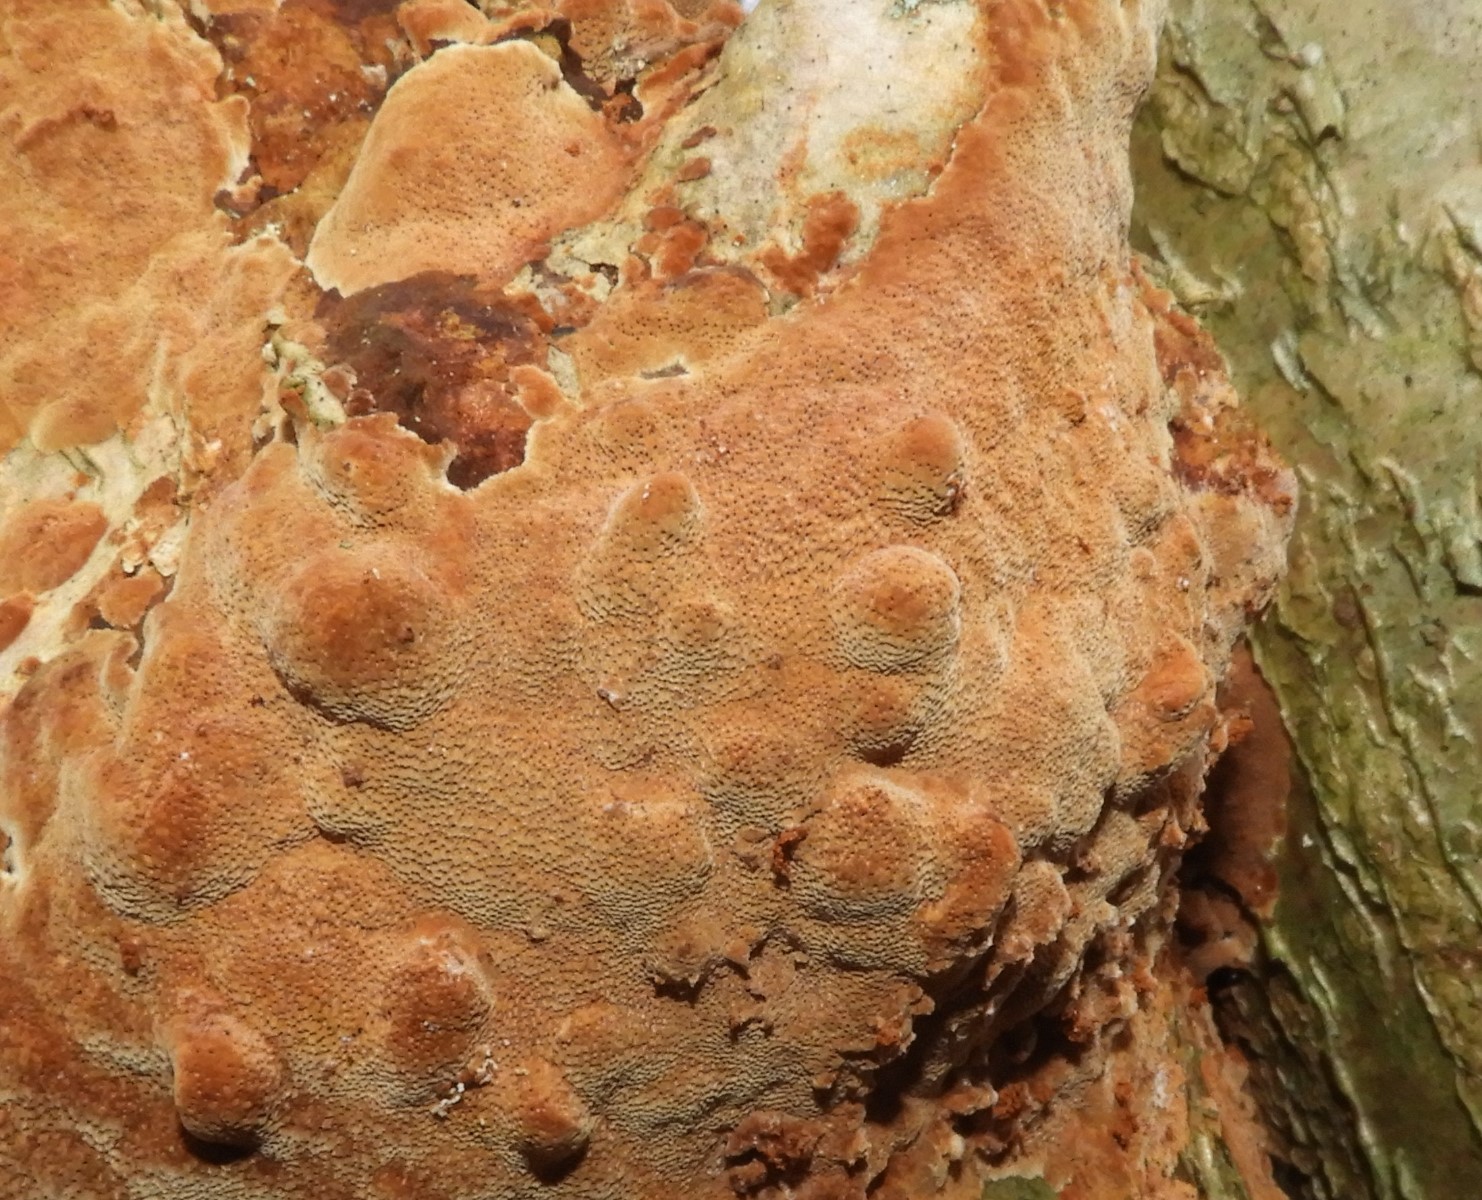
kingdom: Fungi
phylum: Basidiomycota
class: Agaricomycetes
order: Hymenochaetales
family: Hymenochaetaceae
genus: Fuscoporia
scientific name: Fuscoporia ferrea
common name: skorpe-ildporesvamp
